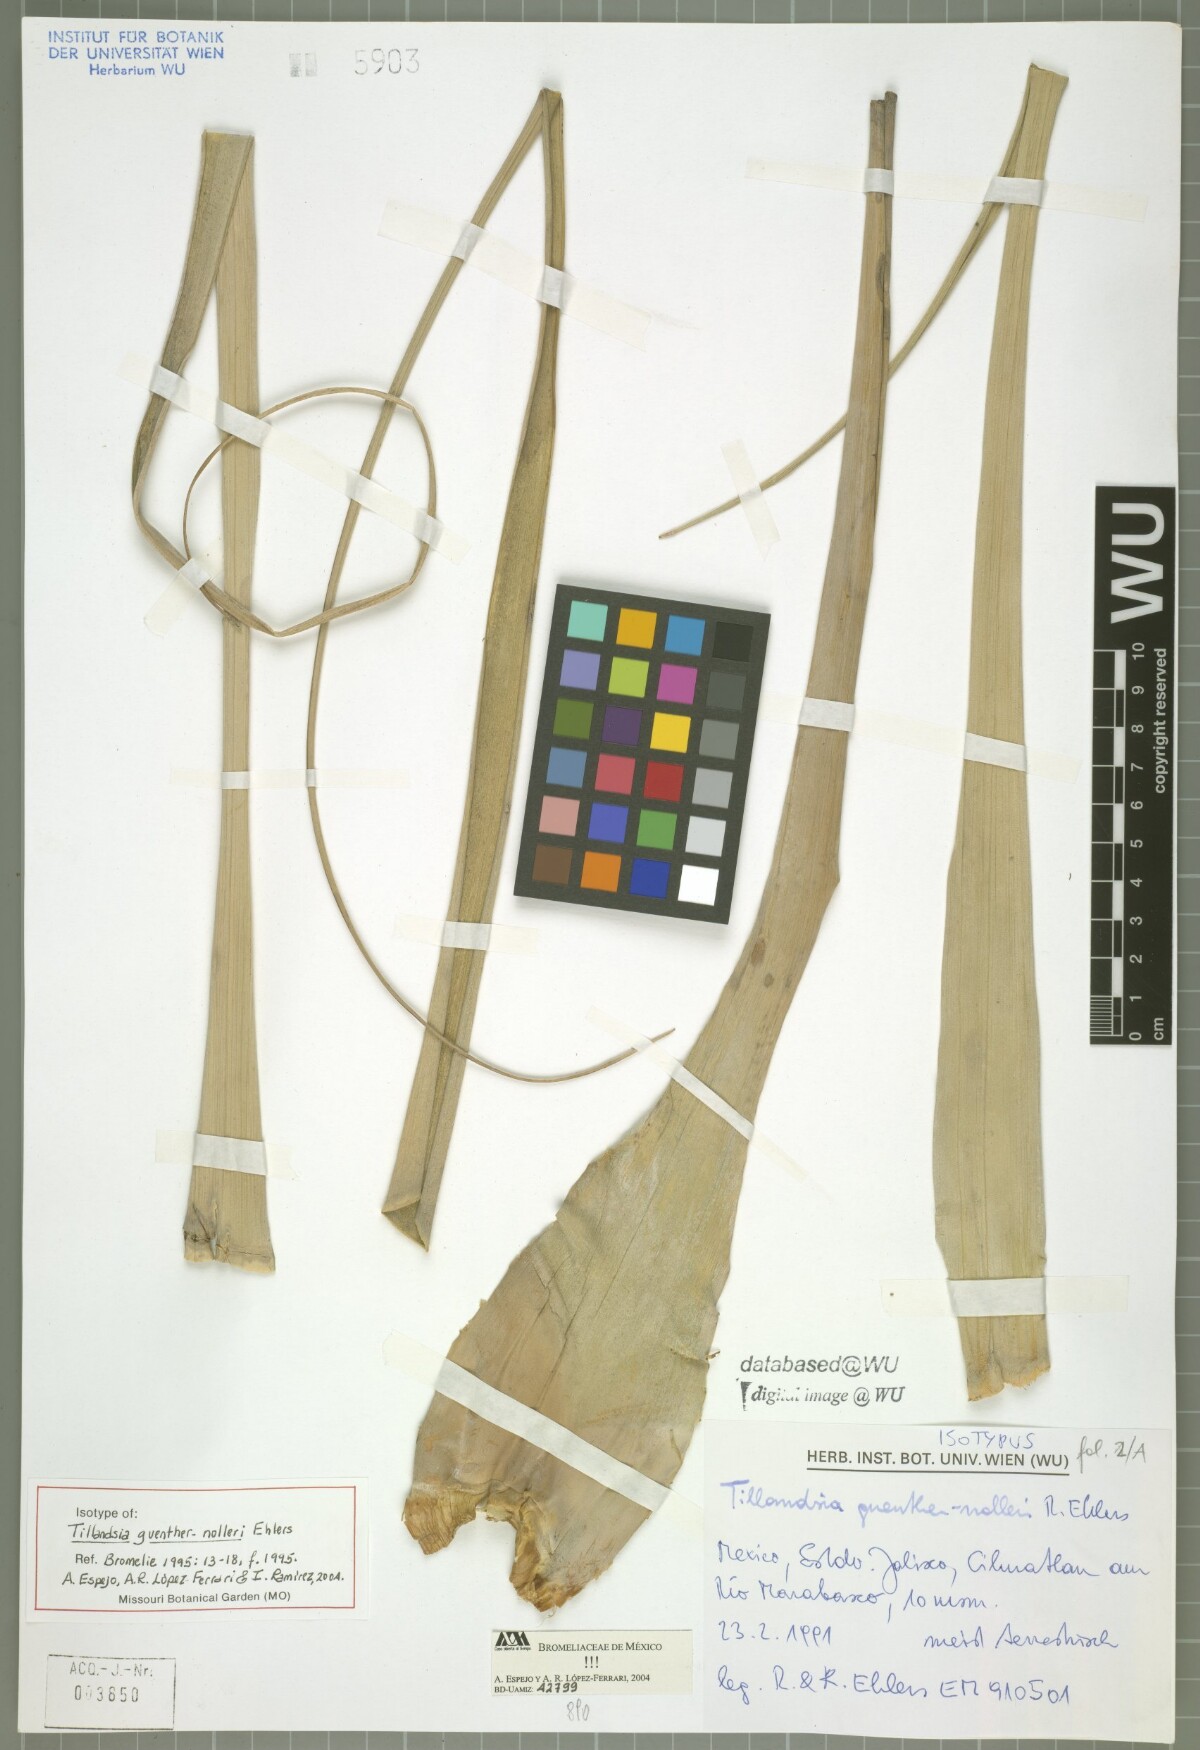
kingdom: Plantae
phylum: Tracheophyta
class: Liliopsida
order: Poales
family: Bromeliaceae
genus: Tillandsia
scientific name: Tillandsia guenther-nolleri
